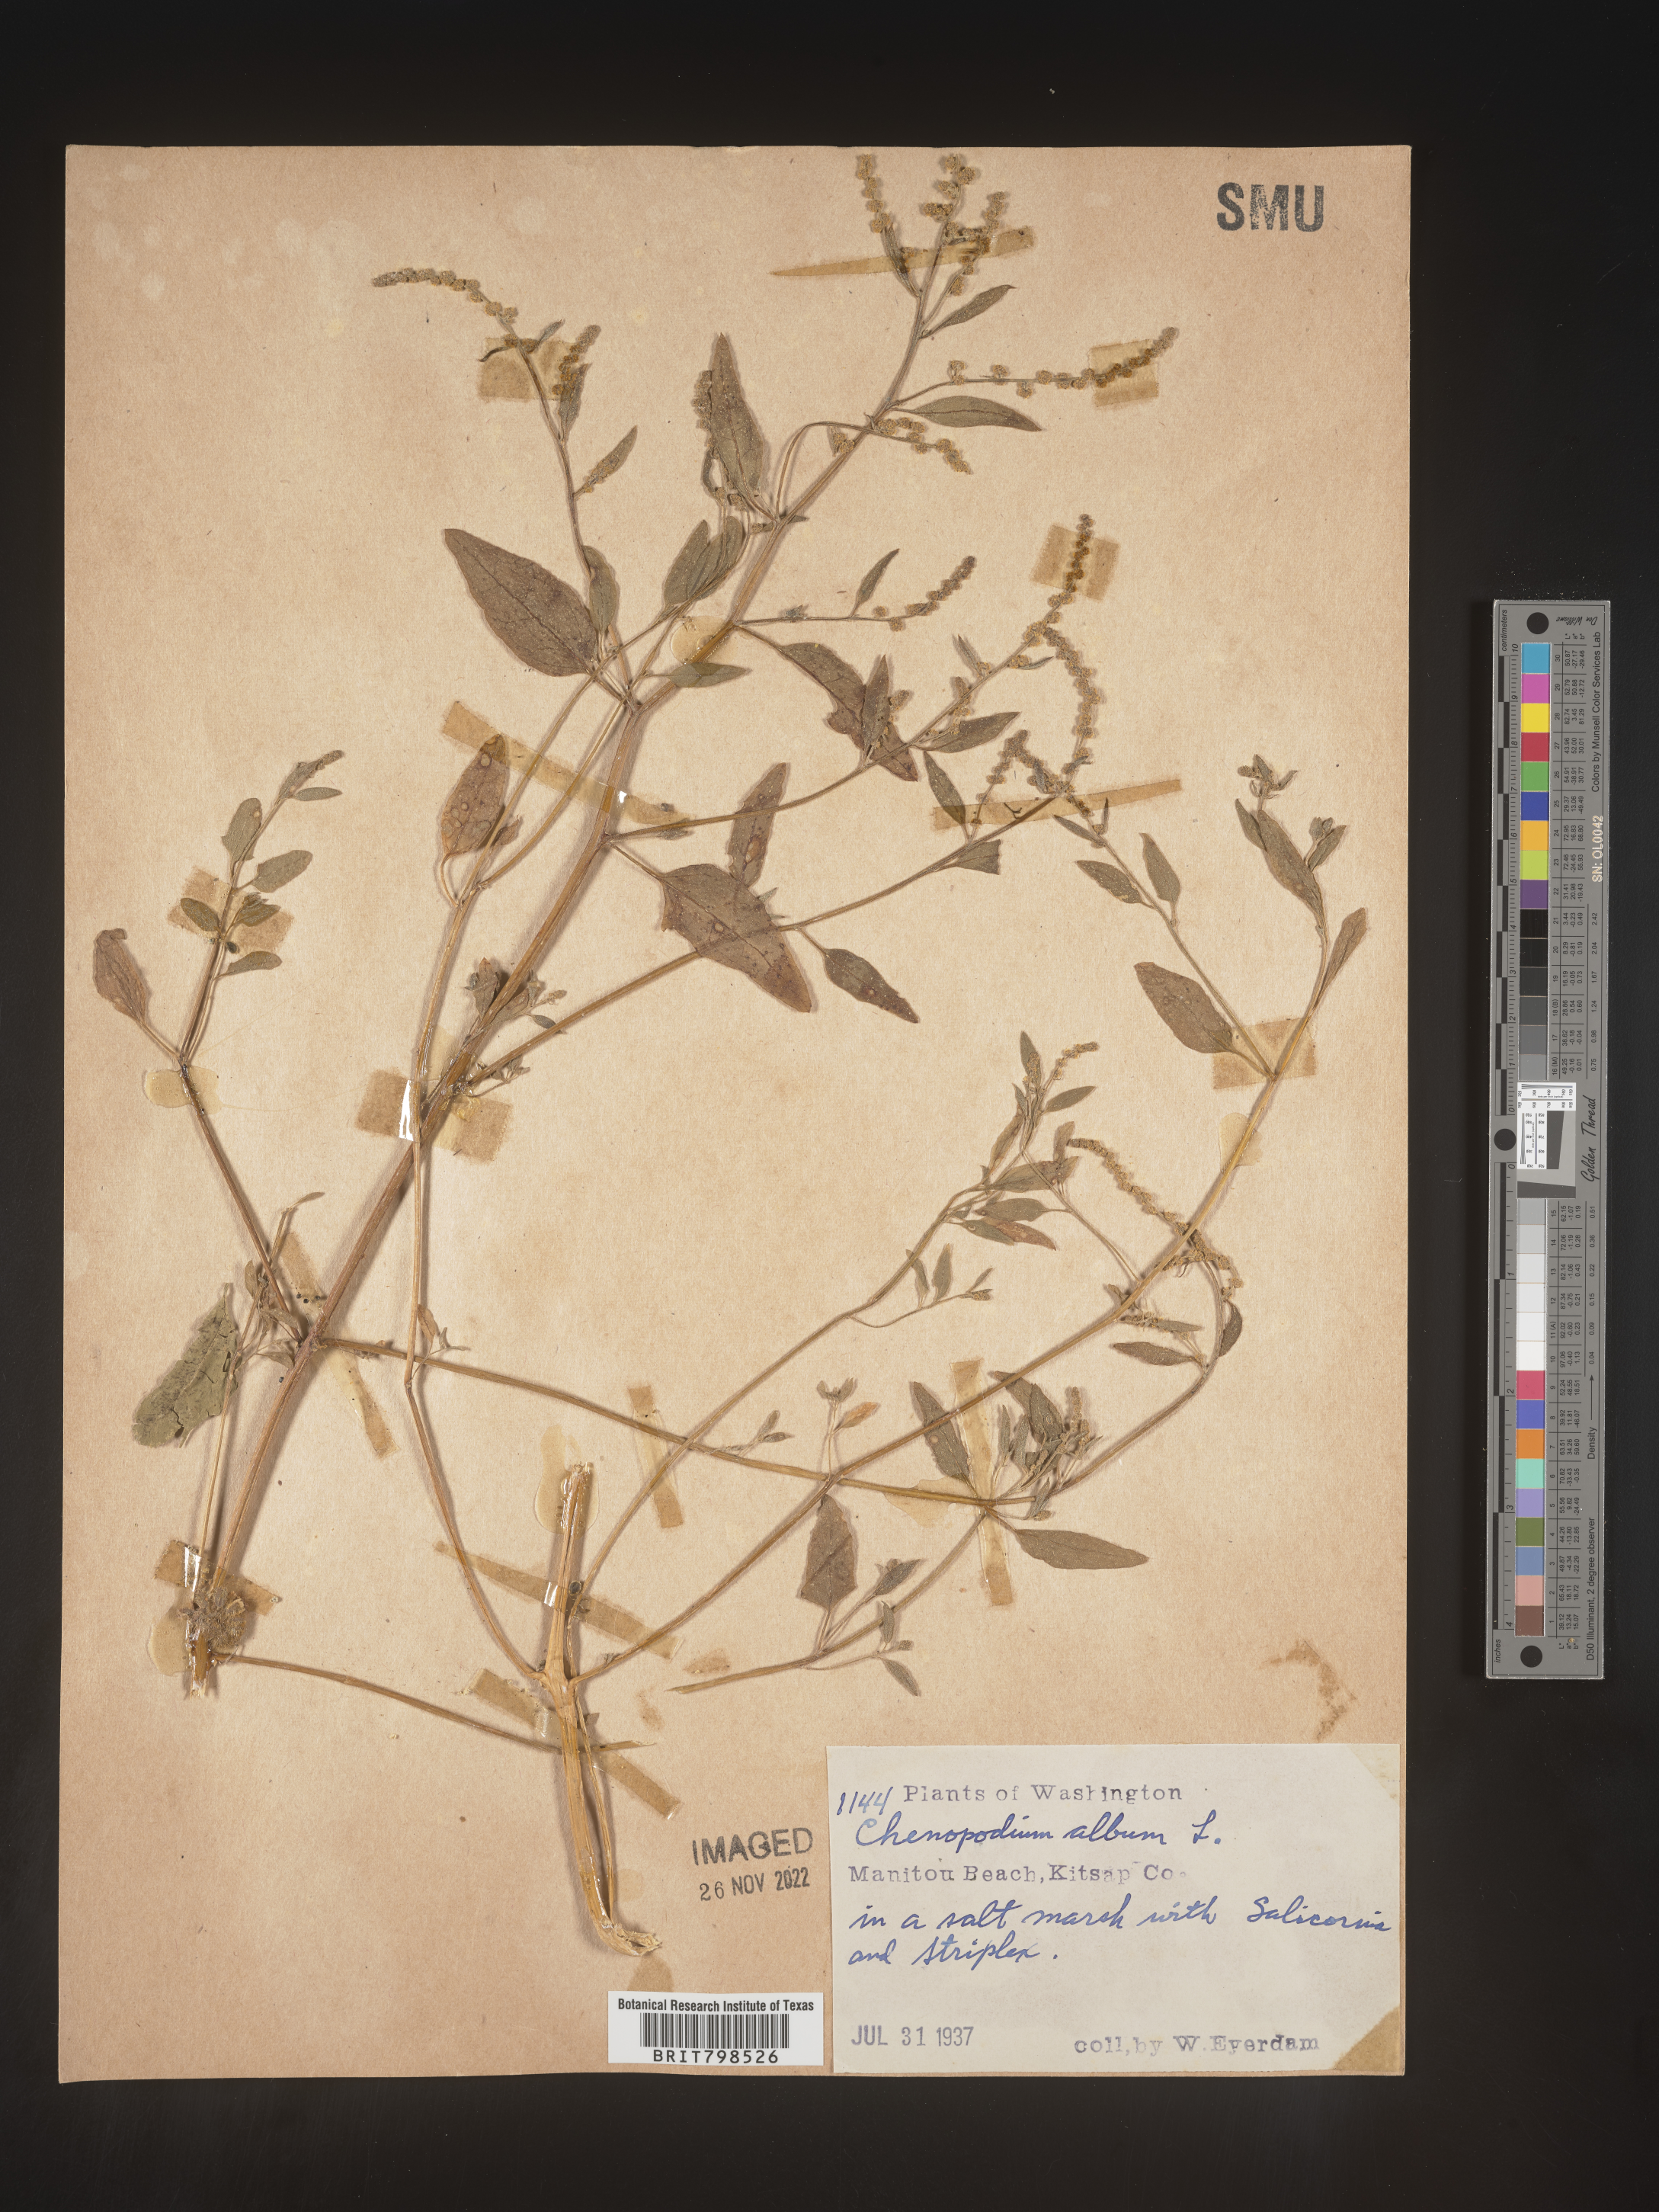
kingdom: Plantae
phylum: Tracheophyta
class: Magnoliopsida
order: Caryophyllales
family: Amaranthaceae
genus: Chenopodium
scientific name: Chenopodium album
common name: Fat-hen
